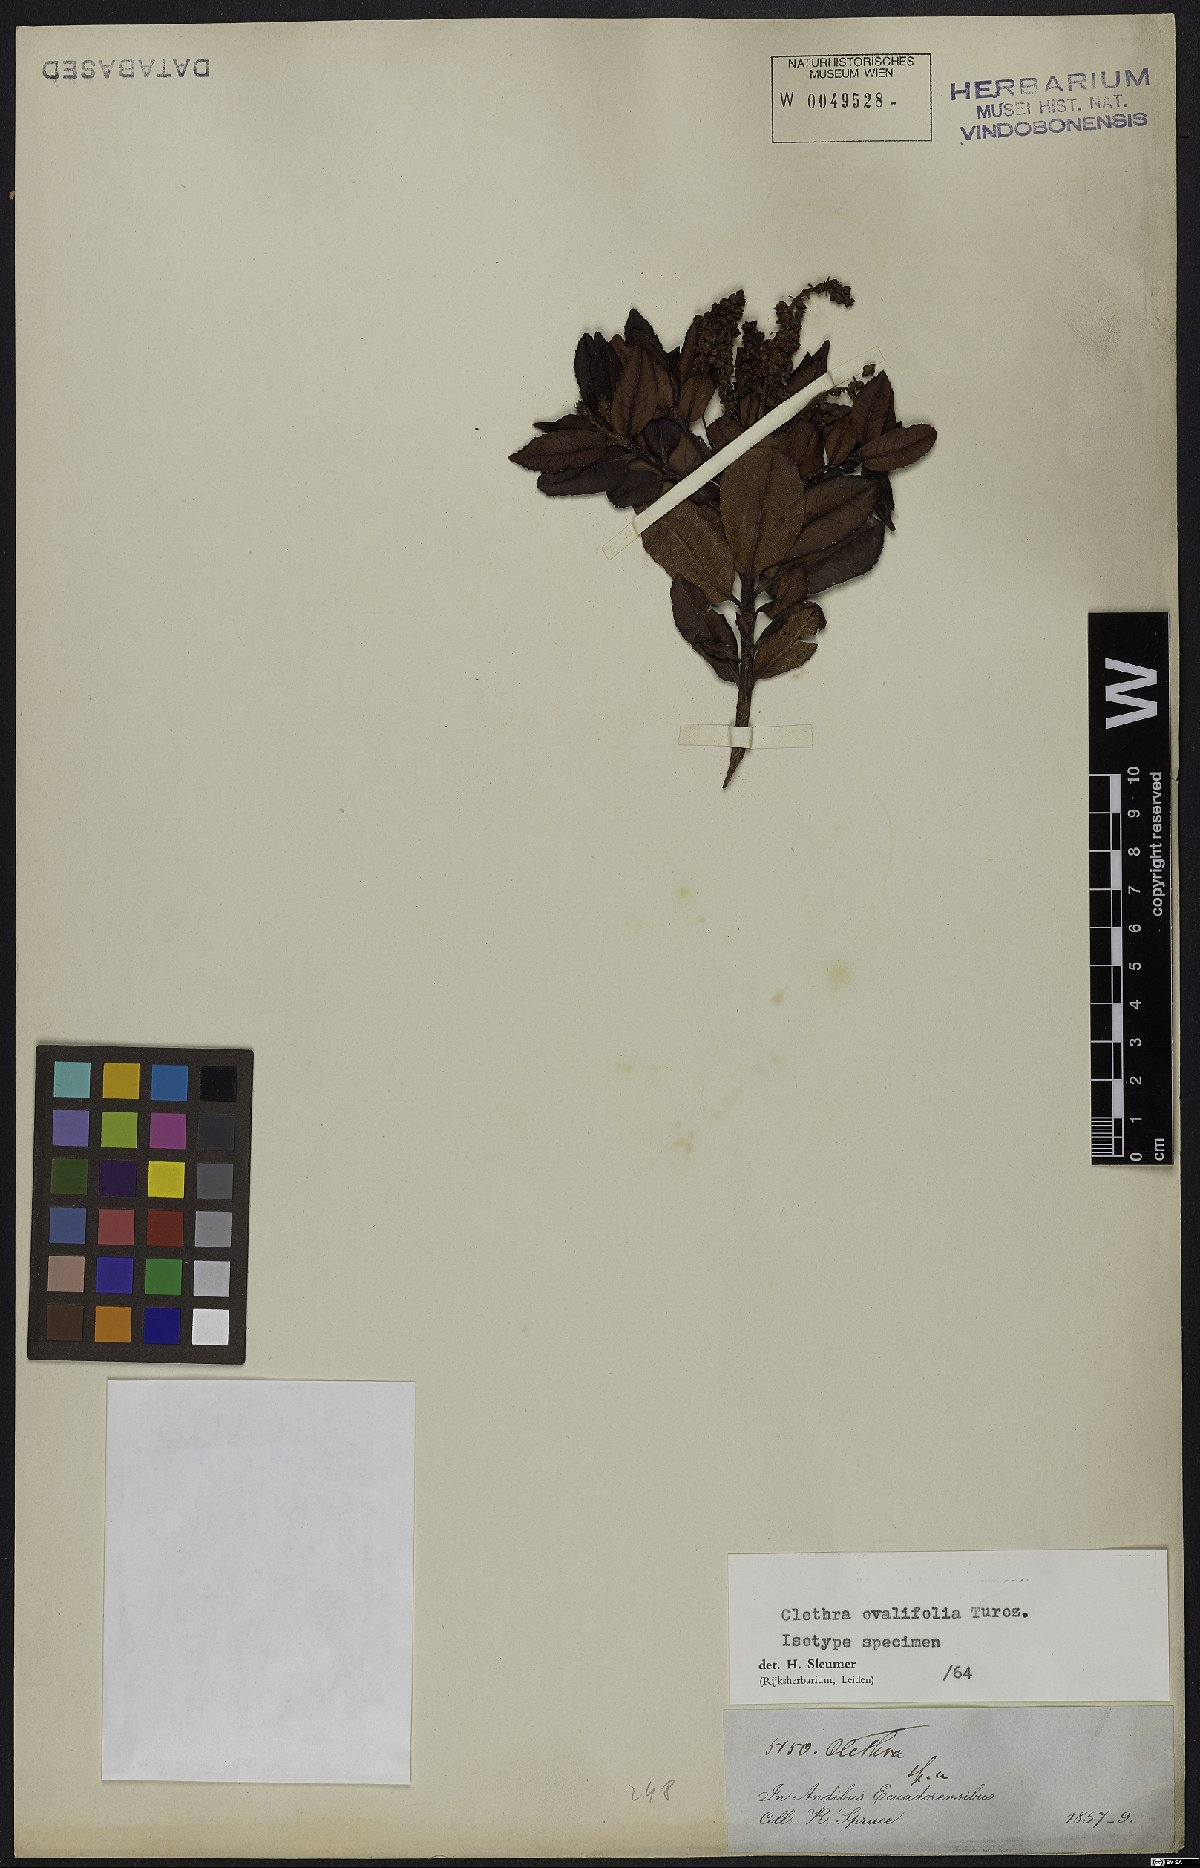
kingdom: Plantae
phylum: Tracheophyta
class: Magnoliopsida
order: Ericales
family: Clethraceae
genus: Clethra
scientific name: Clethra ovalifolia
